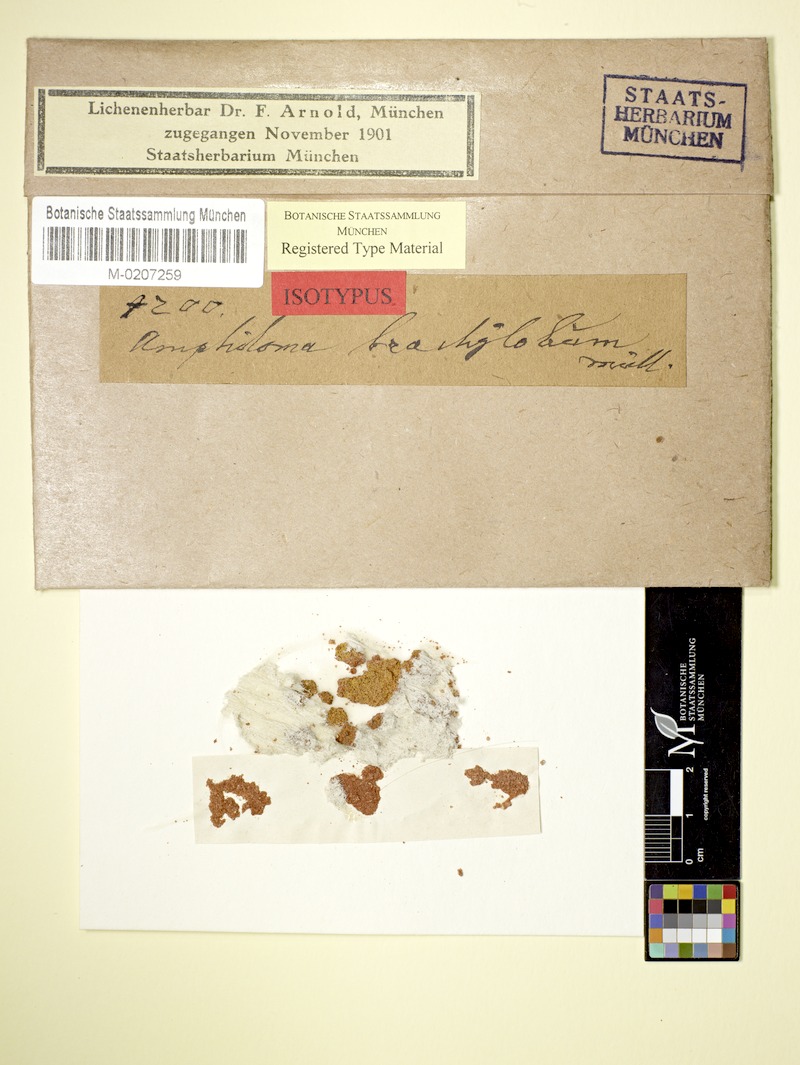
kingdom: Fungi
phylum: Ascomycota
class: Lecanoromycetes
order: Teloschistales
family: Teloschistaceae
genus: Caloplaca
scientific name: Caloplaca
